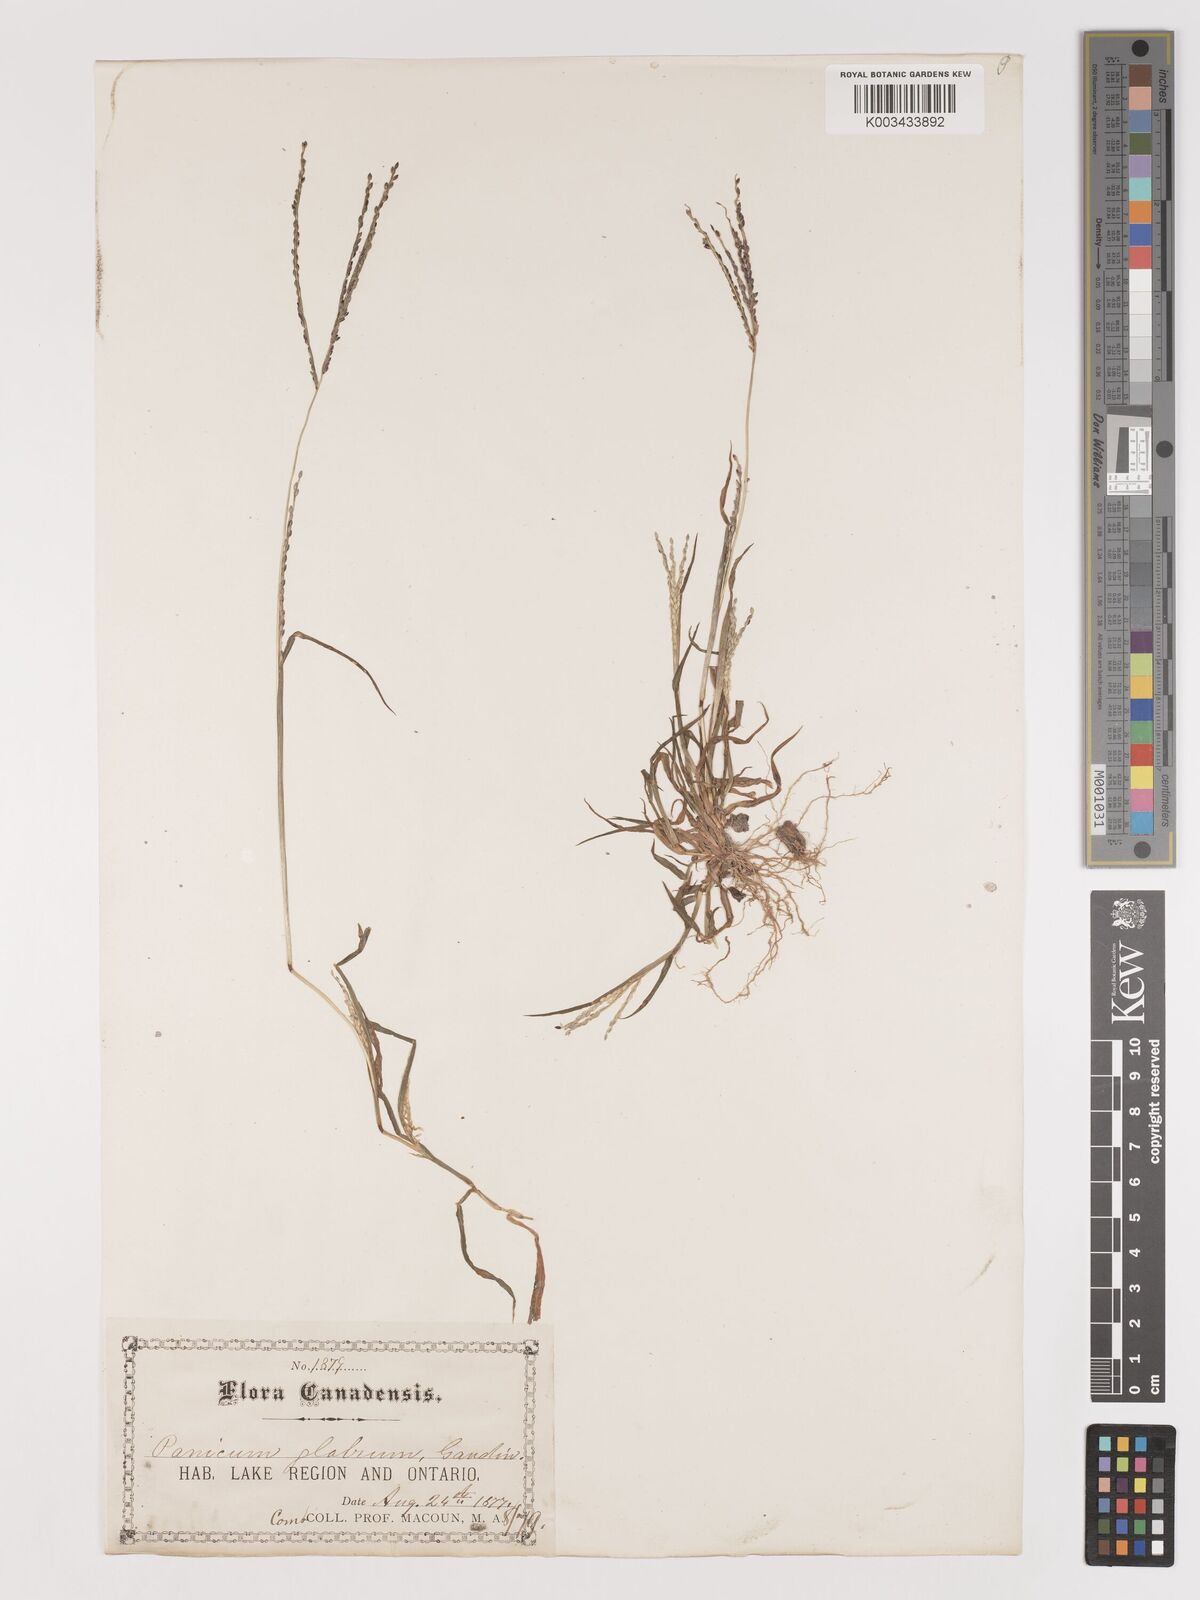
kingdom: Plantae
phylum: Tracheophyta
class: Liliopsida
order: Poales
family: Poaceae
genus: Digitaria
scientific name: Digitaria ischaemum
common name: Smooth crabgrass
